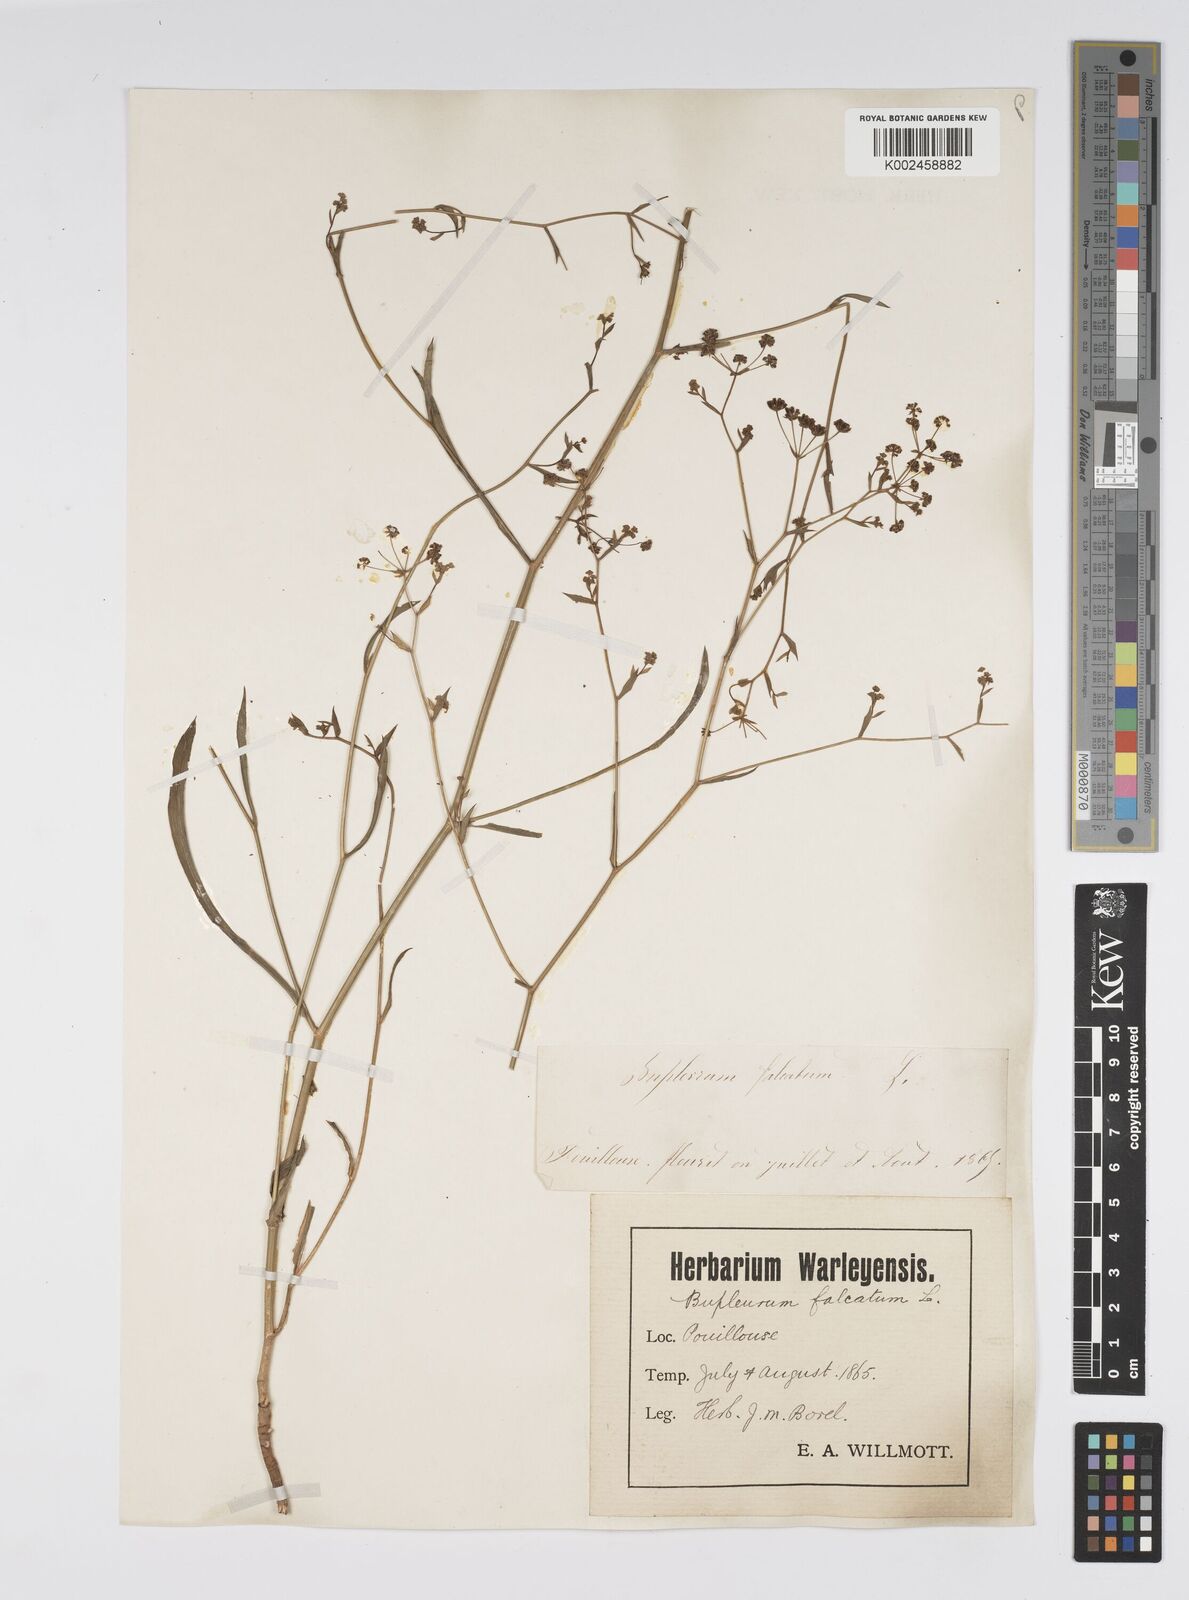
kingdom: Plantae
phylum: Tracheophyta
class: Magnoliopsida
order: Apiales
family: Apiaceae
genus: Bupleurum
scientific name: Bupleurum falcatum
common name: Sickle-leaved hare's-ear
